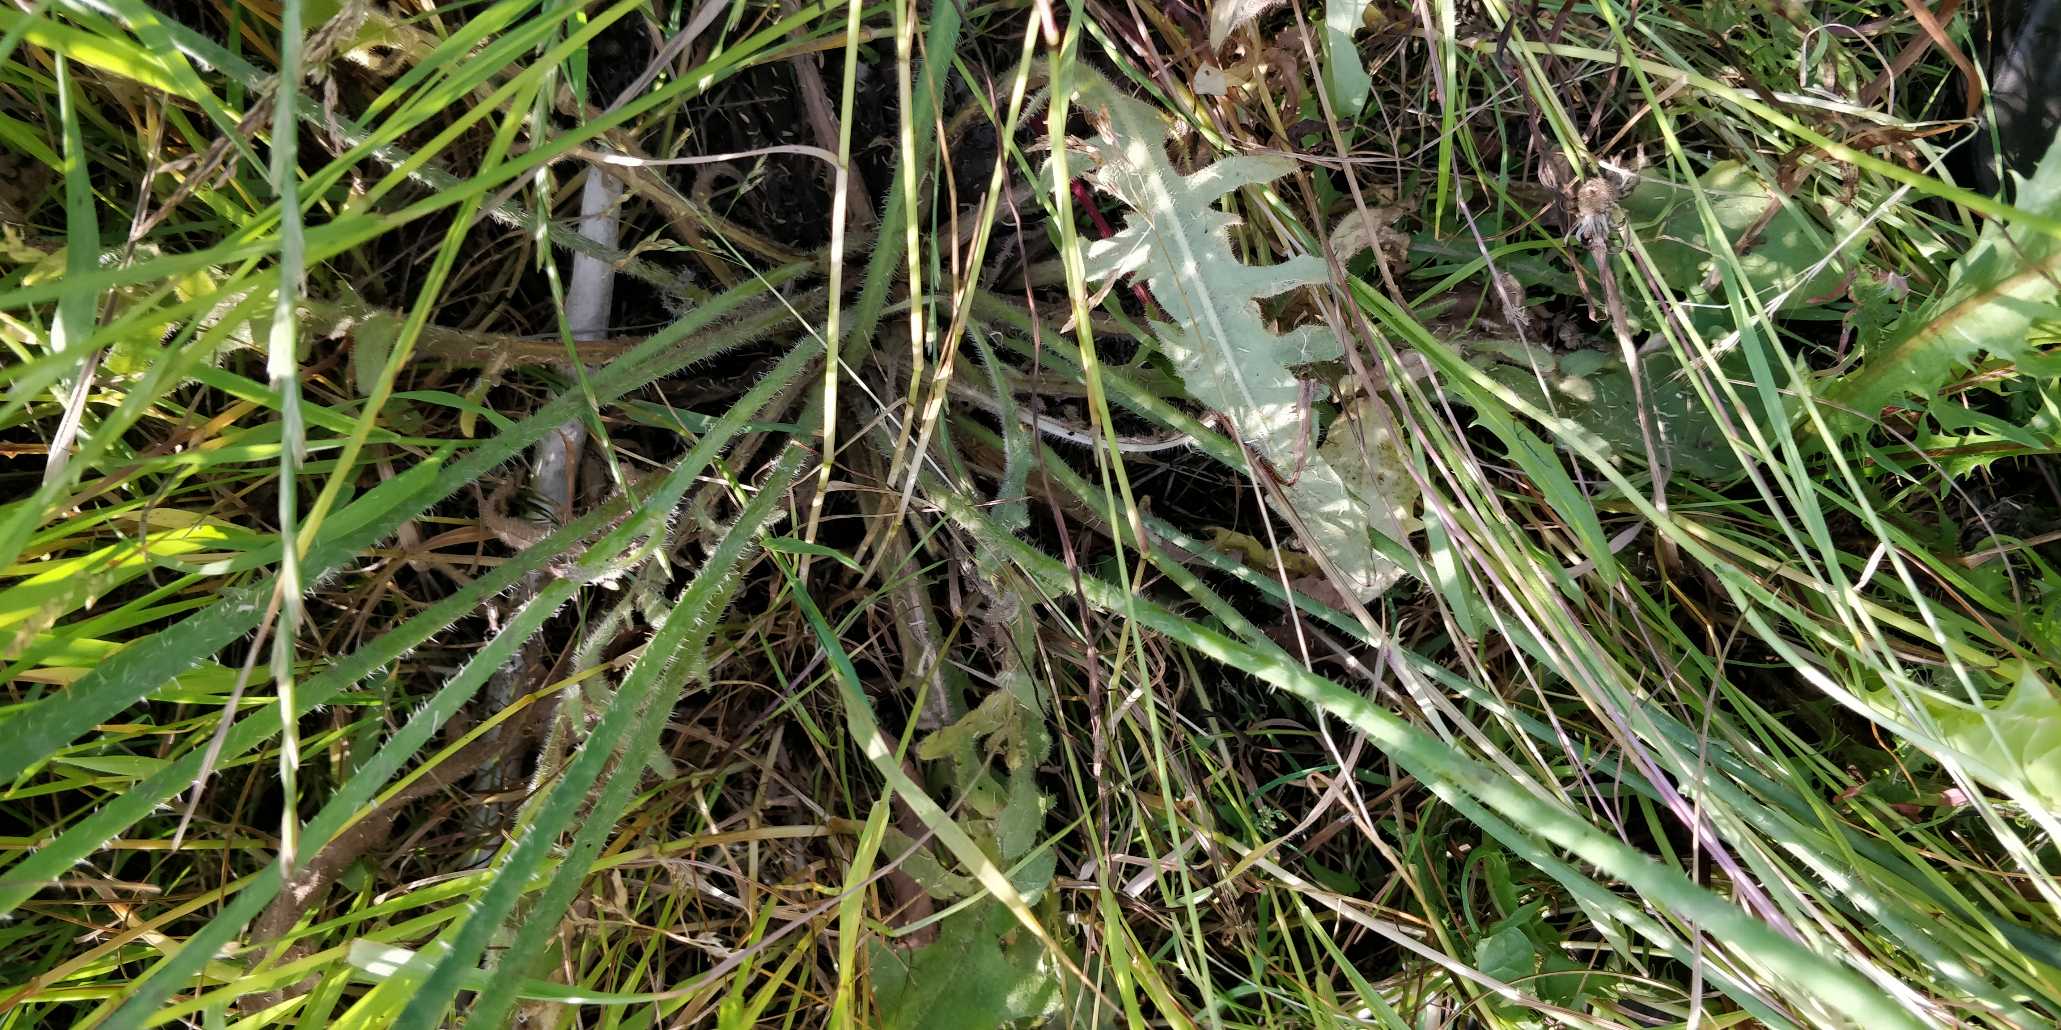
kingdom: Plantae
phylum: Tracheophyta
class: Magnoliopsida
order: Asterales
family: Asteraceae
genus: Hypochaeris
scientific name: Hypochaeris radicata
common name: Almindelig kongepen
